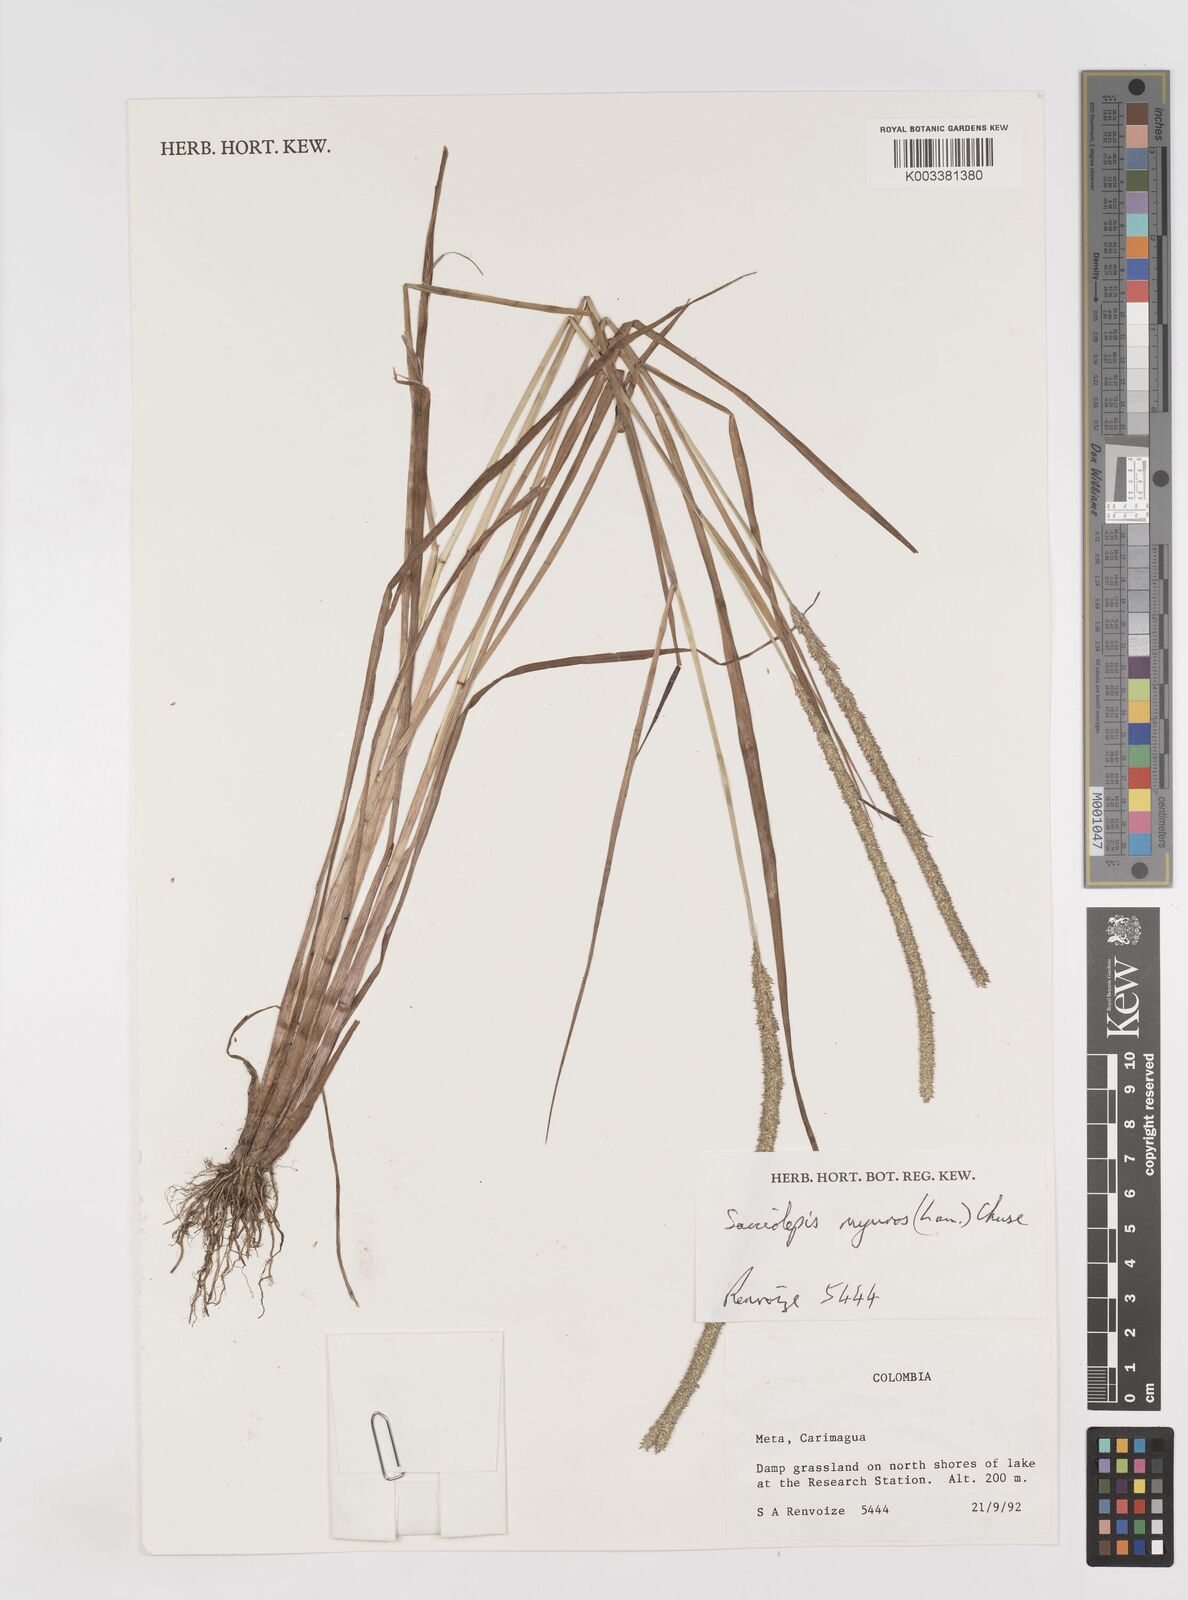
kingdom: Plantae
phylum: Tracheophyta
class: Liliopsida
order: Poales
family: Poaceae
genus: Sacciolepis
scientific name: Sacciolepis myuros
